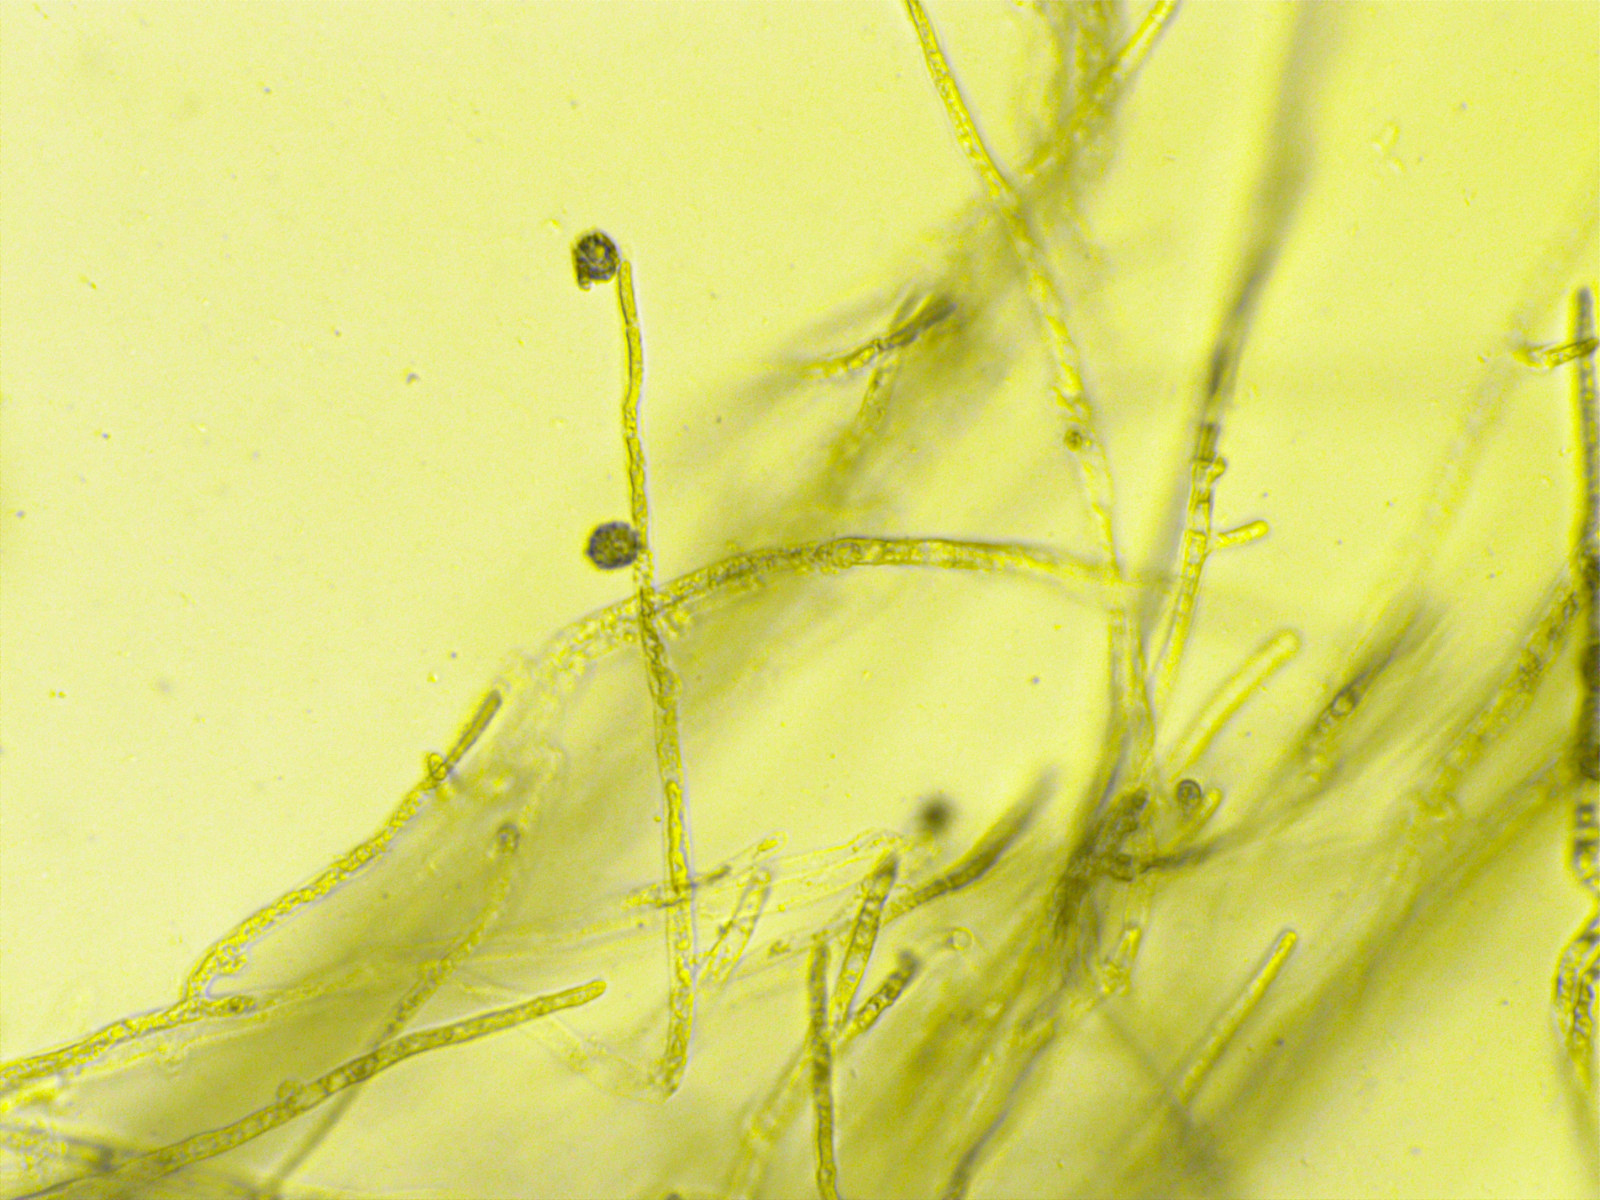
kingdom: Fungi
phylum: Basidiomycota
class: Agaricomycetes
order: Thelephorales
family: Thelephoraceae
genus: Thelephora
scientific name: Thelephora penicillata
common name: fladtrådt frynsesvamp
